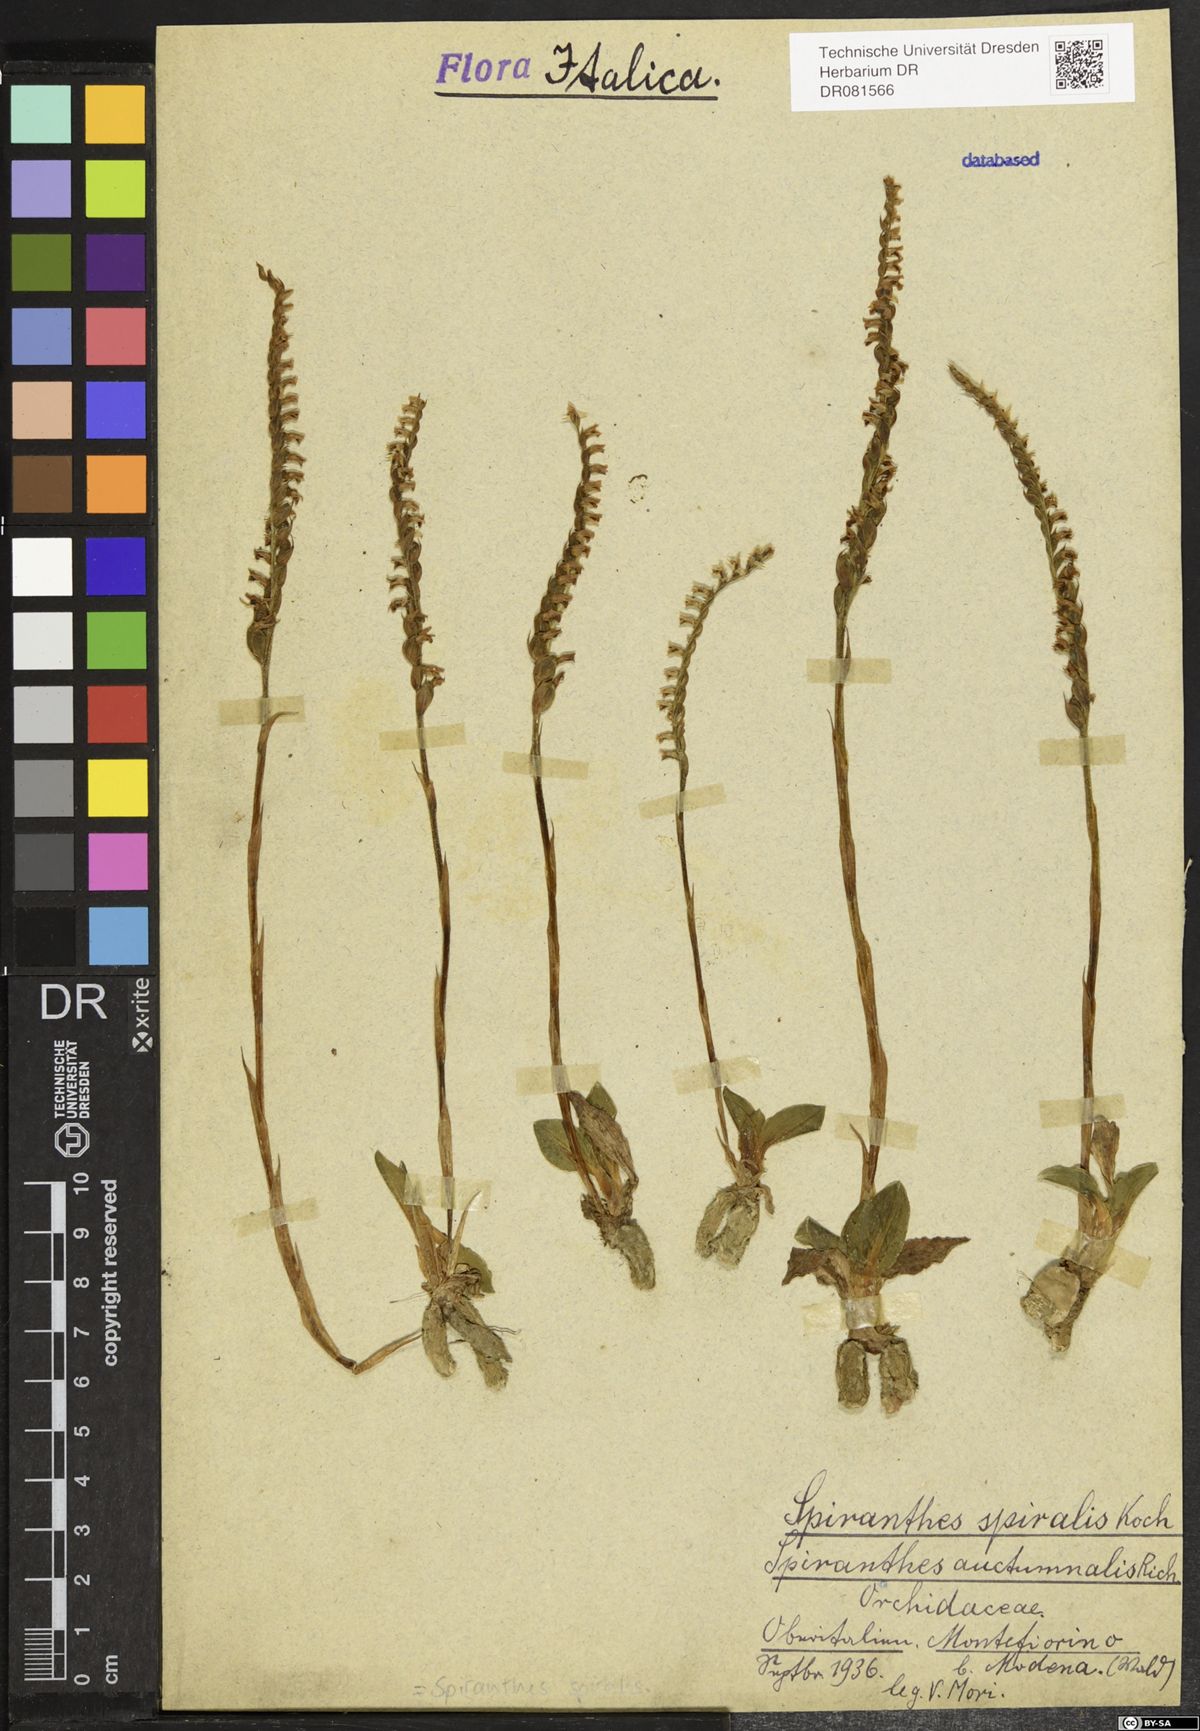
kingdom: Plantae
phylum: Tracheophyta
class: Liliopsida
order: Asparagales
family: Orchidaceae
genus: Spiranthes
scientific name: Spiranthes spiralis
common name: Autumn lady's-tresses
